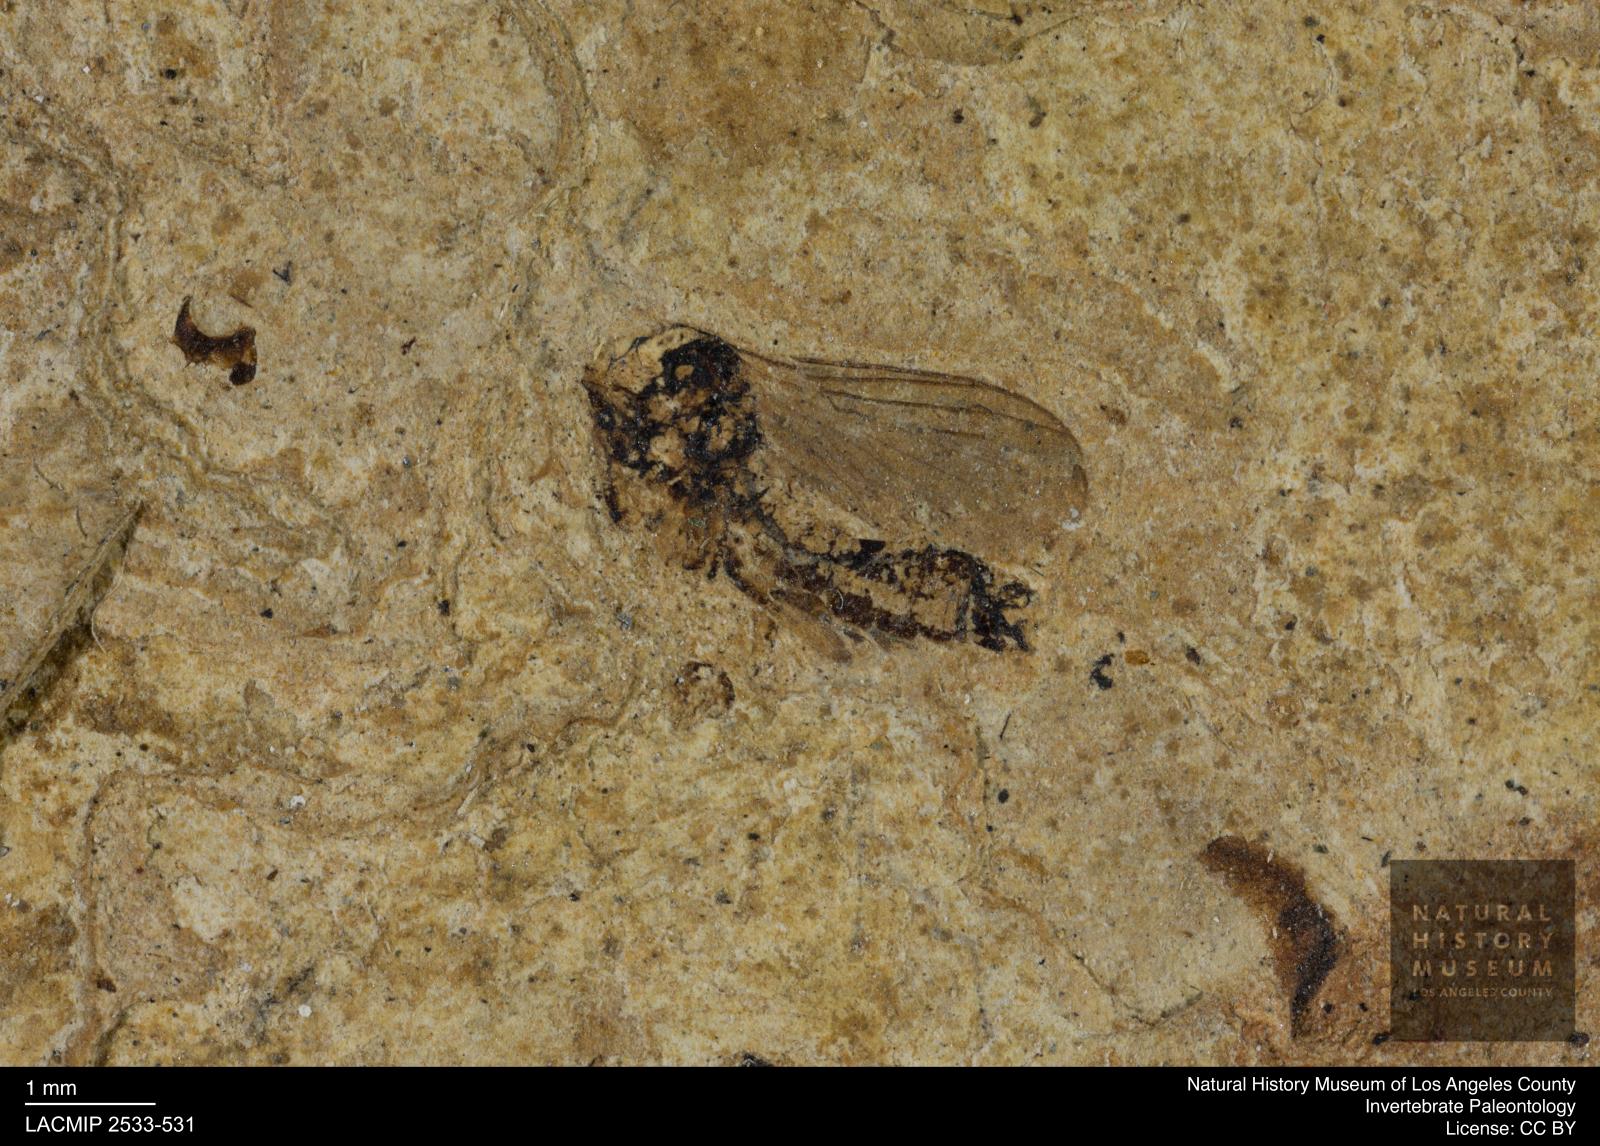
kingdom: Animalia
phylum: Arthropoda
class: Insecta
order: Diptera
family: Mycetophilidae
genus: Mycomya
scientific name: Mycomya umbonata
